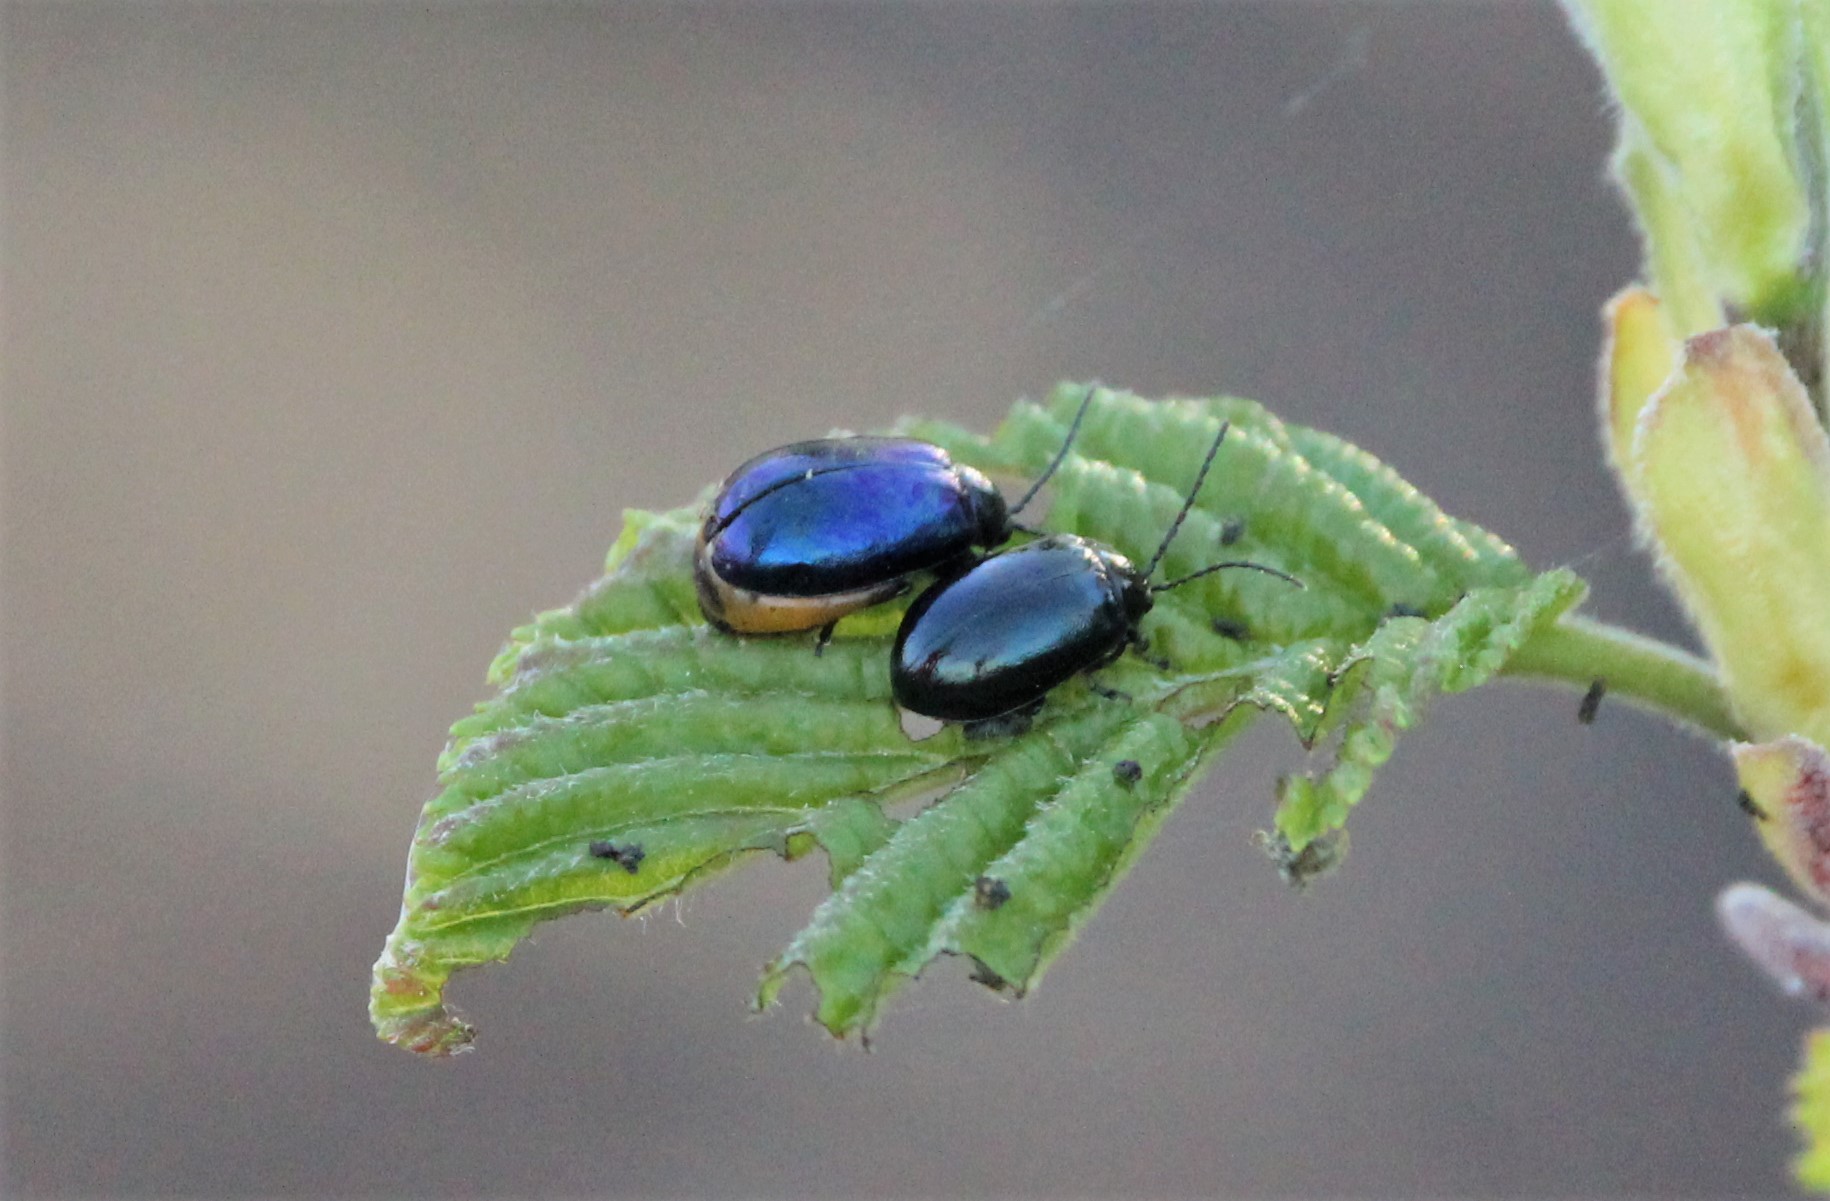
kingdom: Animalia
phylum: Arthropoda
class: Insecta
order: Coleoptera
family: Chrysomelidae
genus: Agelastica
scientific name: Agelastica alni
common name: Alder leaf beetle
